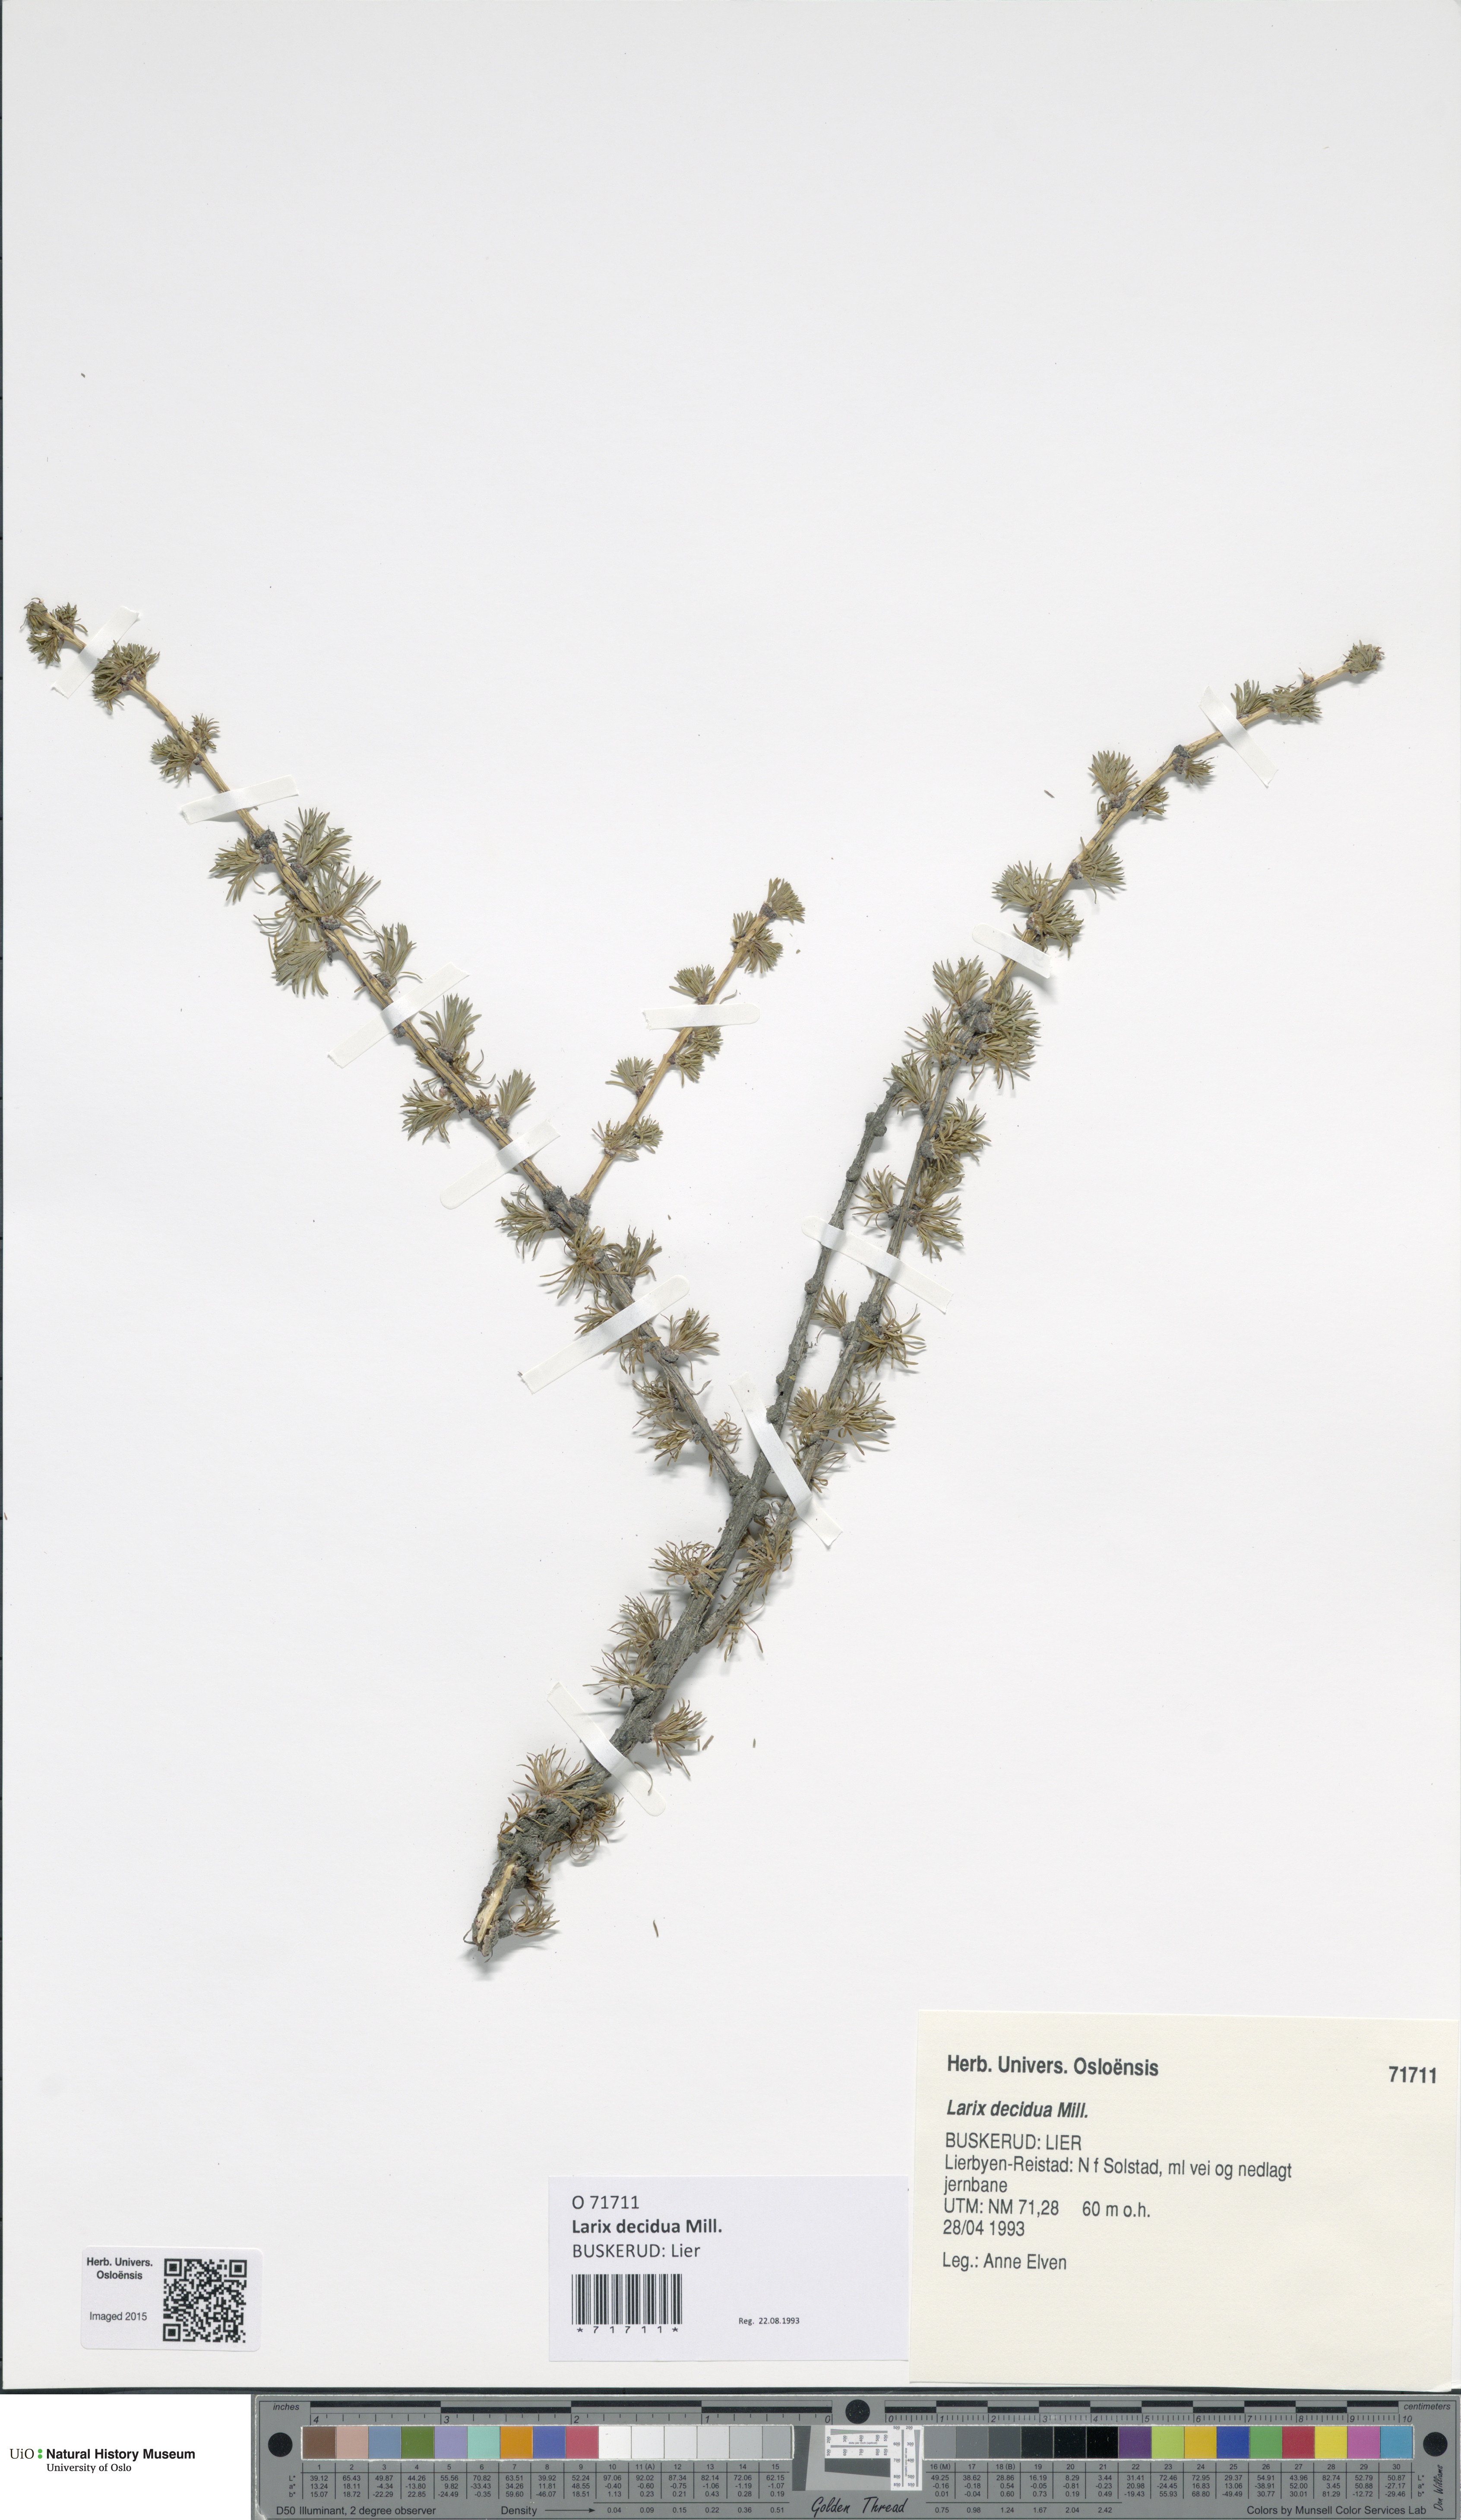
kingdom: Plantae
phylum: Tracheophyta
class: Pinopsida
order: Pinales
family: Pinaceae
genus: Larix
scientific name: Larix decidua
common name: European larch
